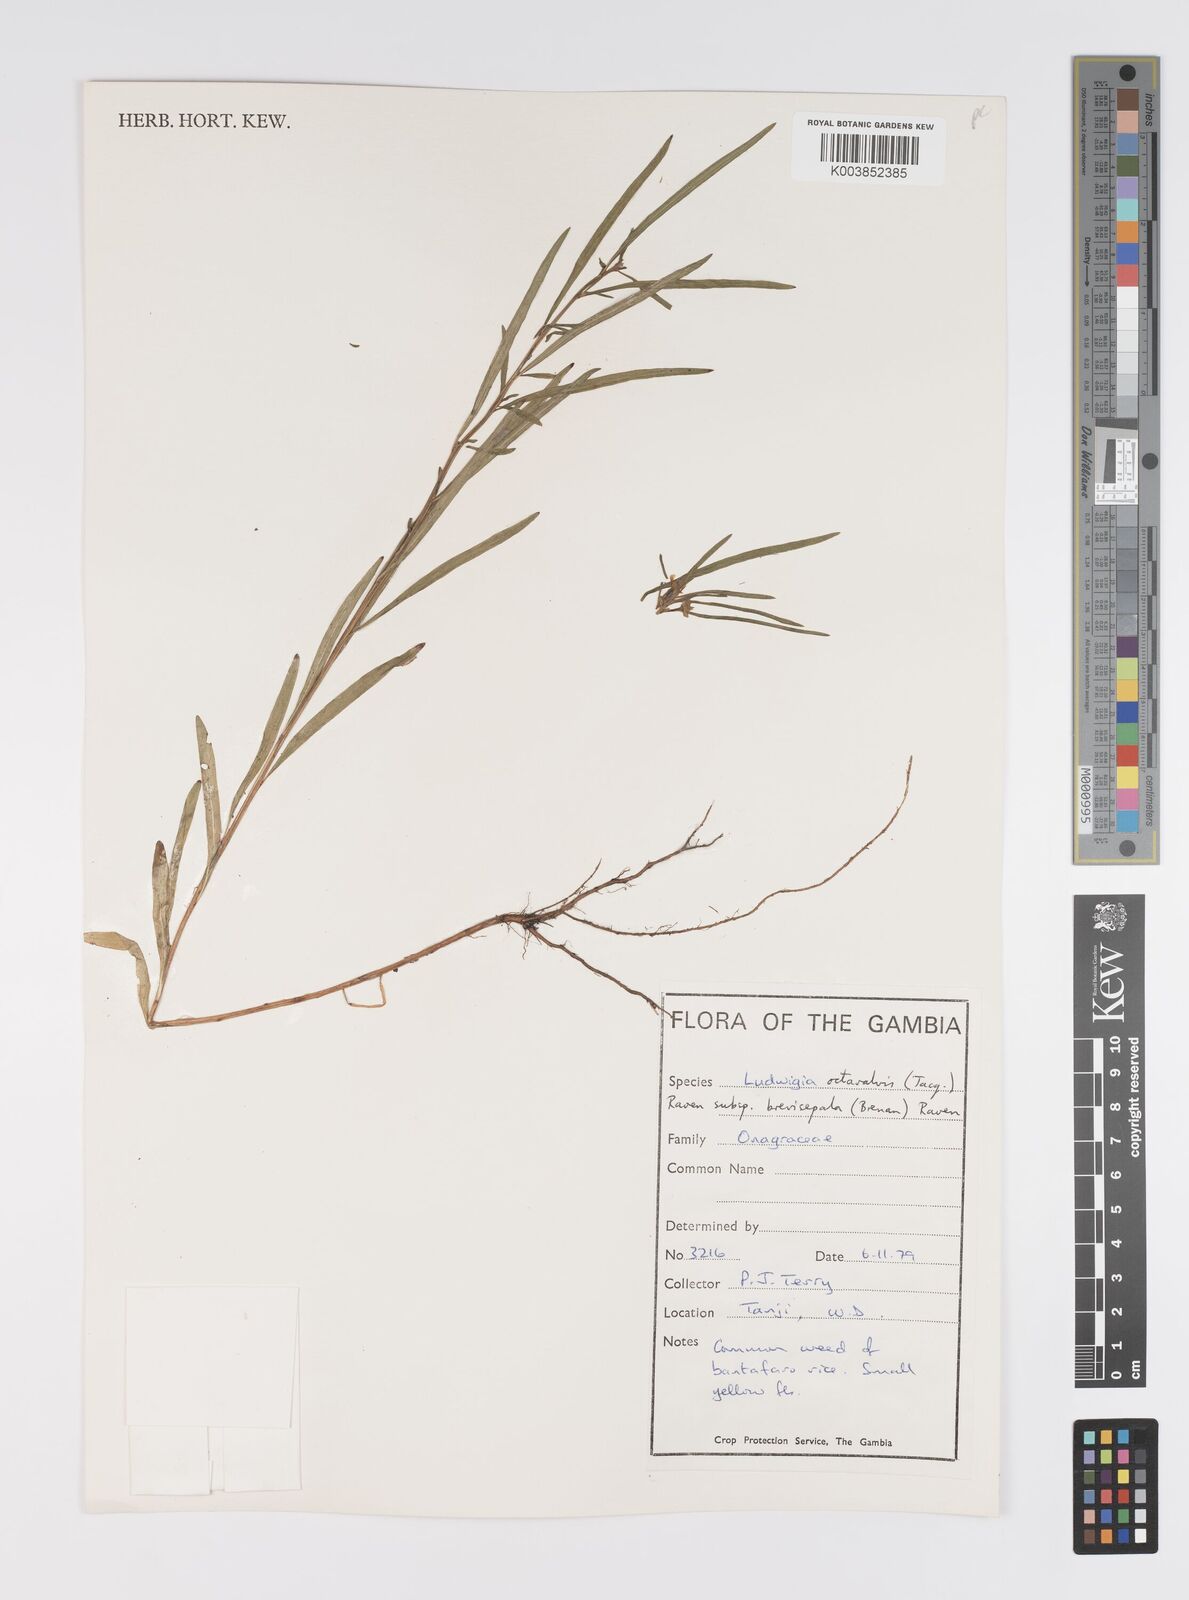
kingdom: Plantae
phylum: Tracheophyta
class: Magnoliopsida
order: Myrtales
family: Onagraceae
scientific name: Onagraceae
